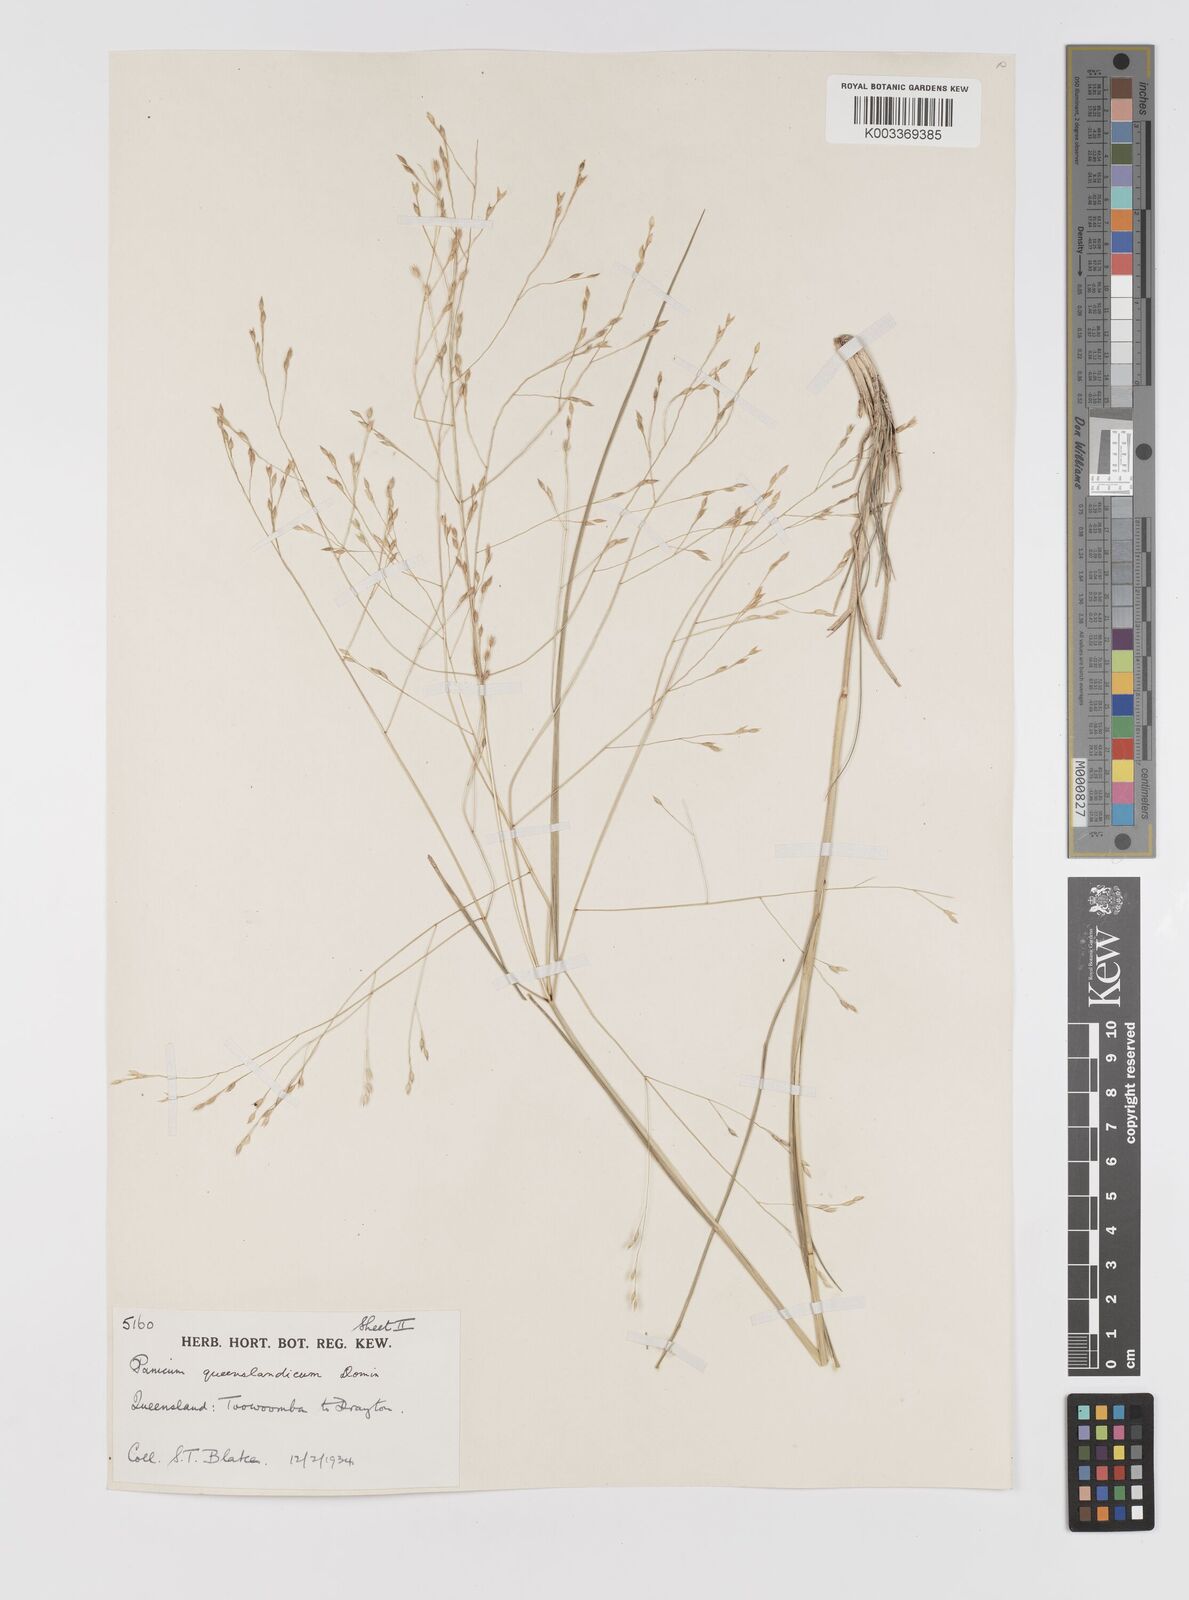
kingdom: Plantae
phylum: Tracheophyta
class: Liliopsida
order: Poales
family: Poaceae
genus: Panicum
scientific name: Panicum queenslandicum
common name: Yabila grass
